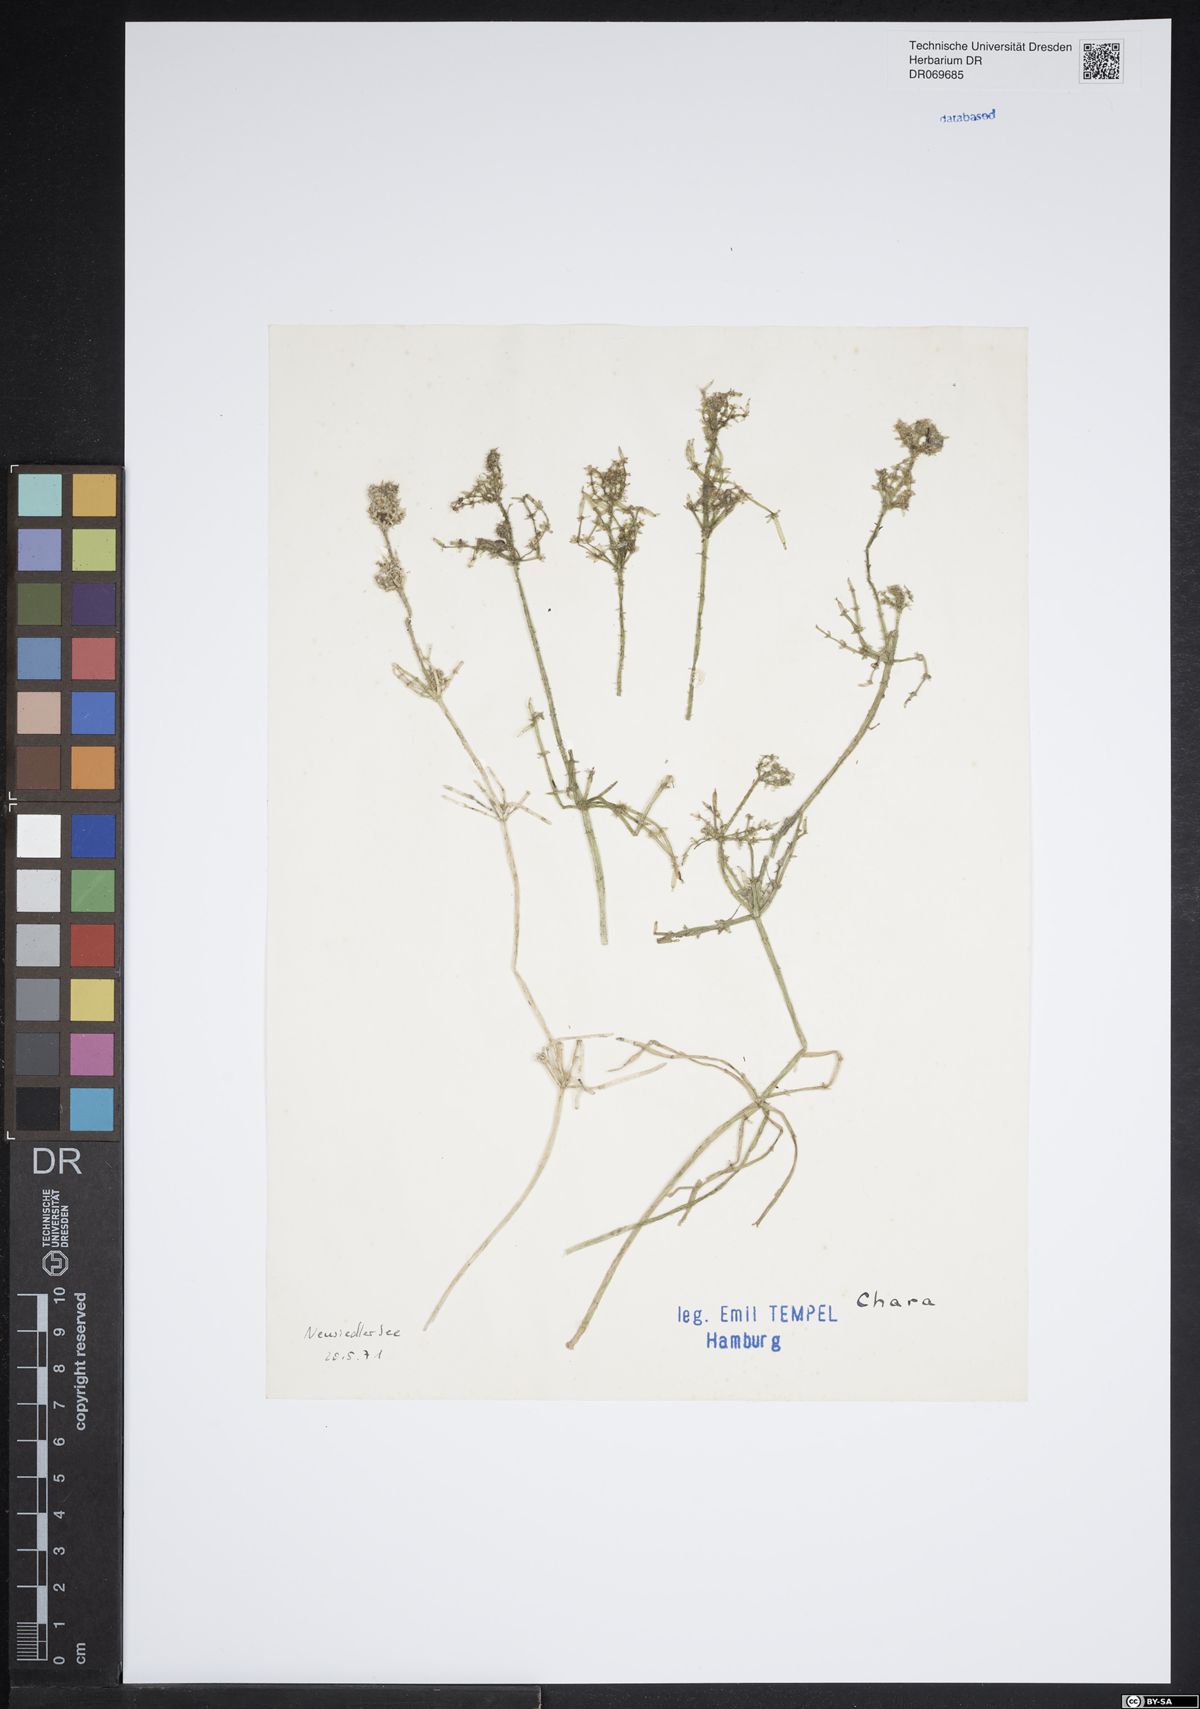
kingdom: Plantae
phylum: Charophyta
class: Charophyceae
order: Charales
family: Characeae
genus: Chara
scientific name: Chara
